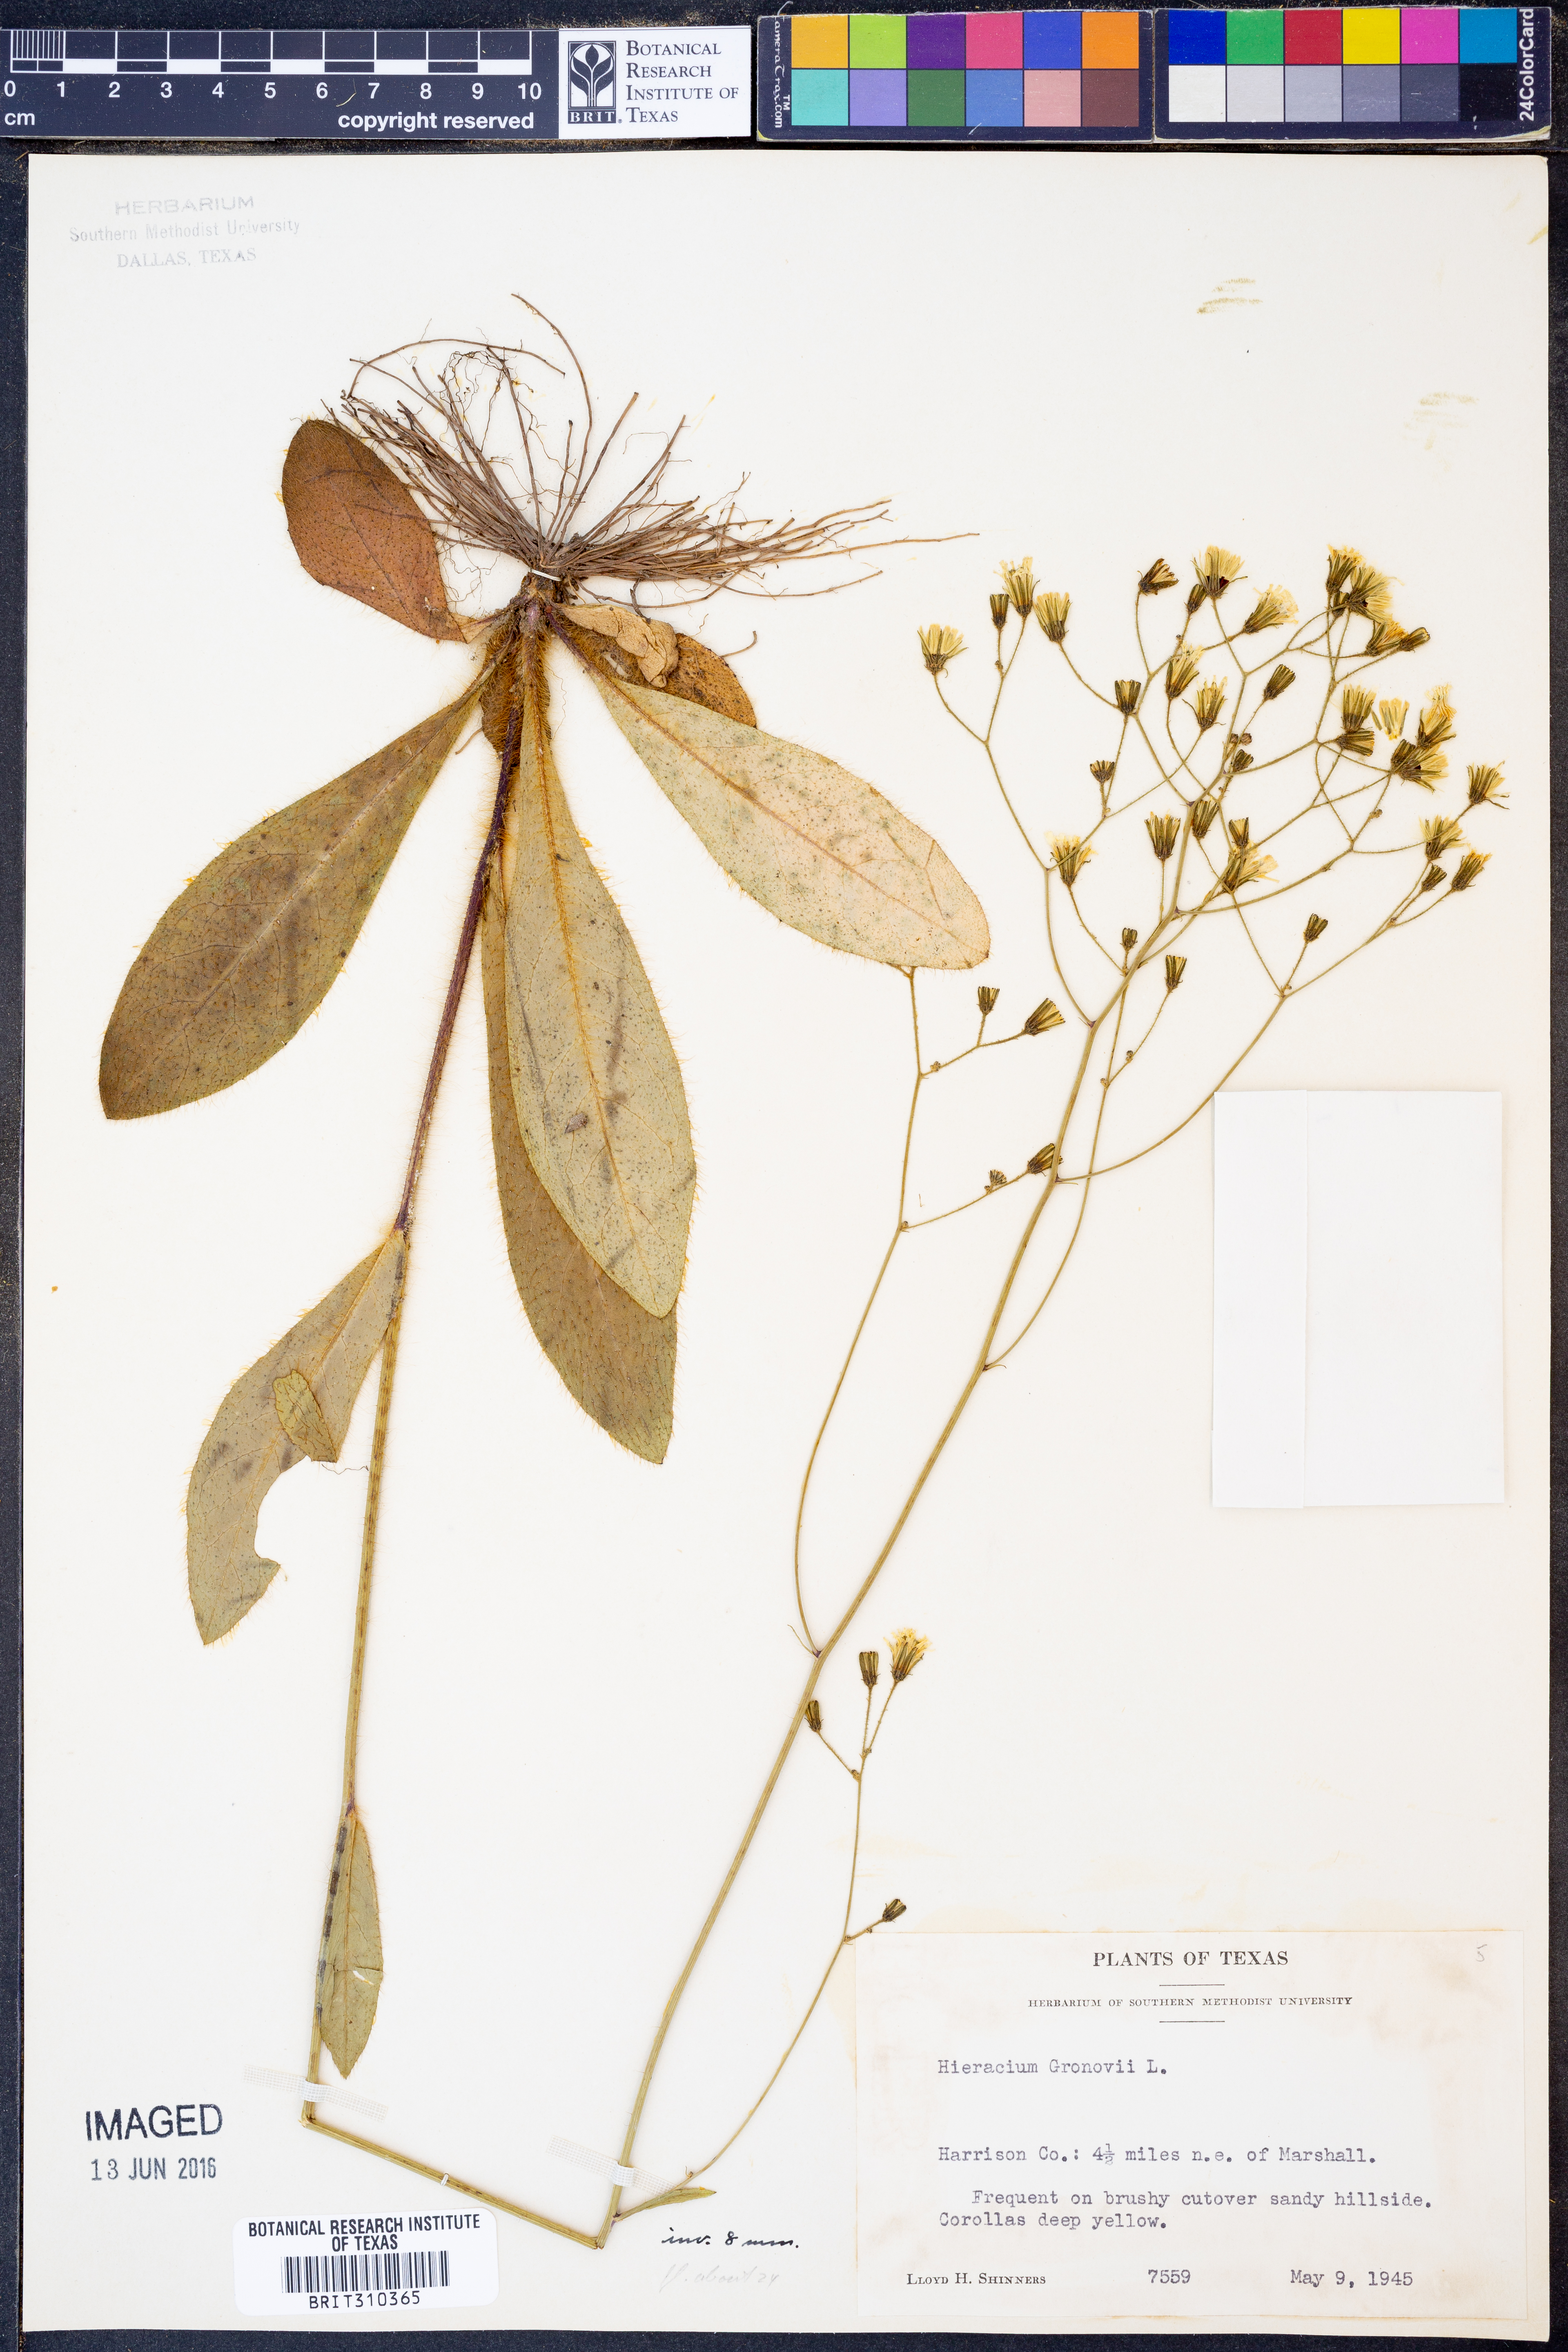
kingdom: Plantae
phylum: Tracheophyta
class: Magnoliopsida
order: Asterales
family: Asteraceae
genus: Hieracium
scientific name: Hieracium gronovii
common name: Beaked hawkweed
